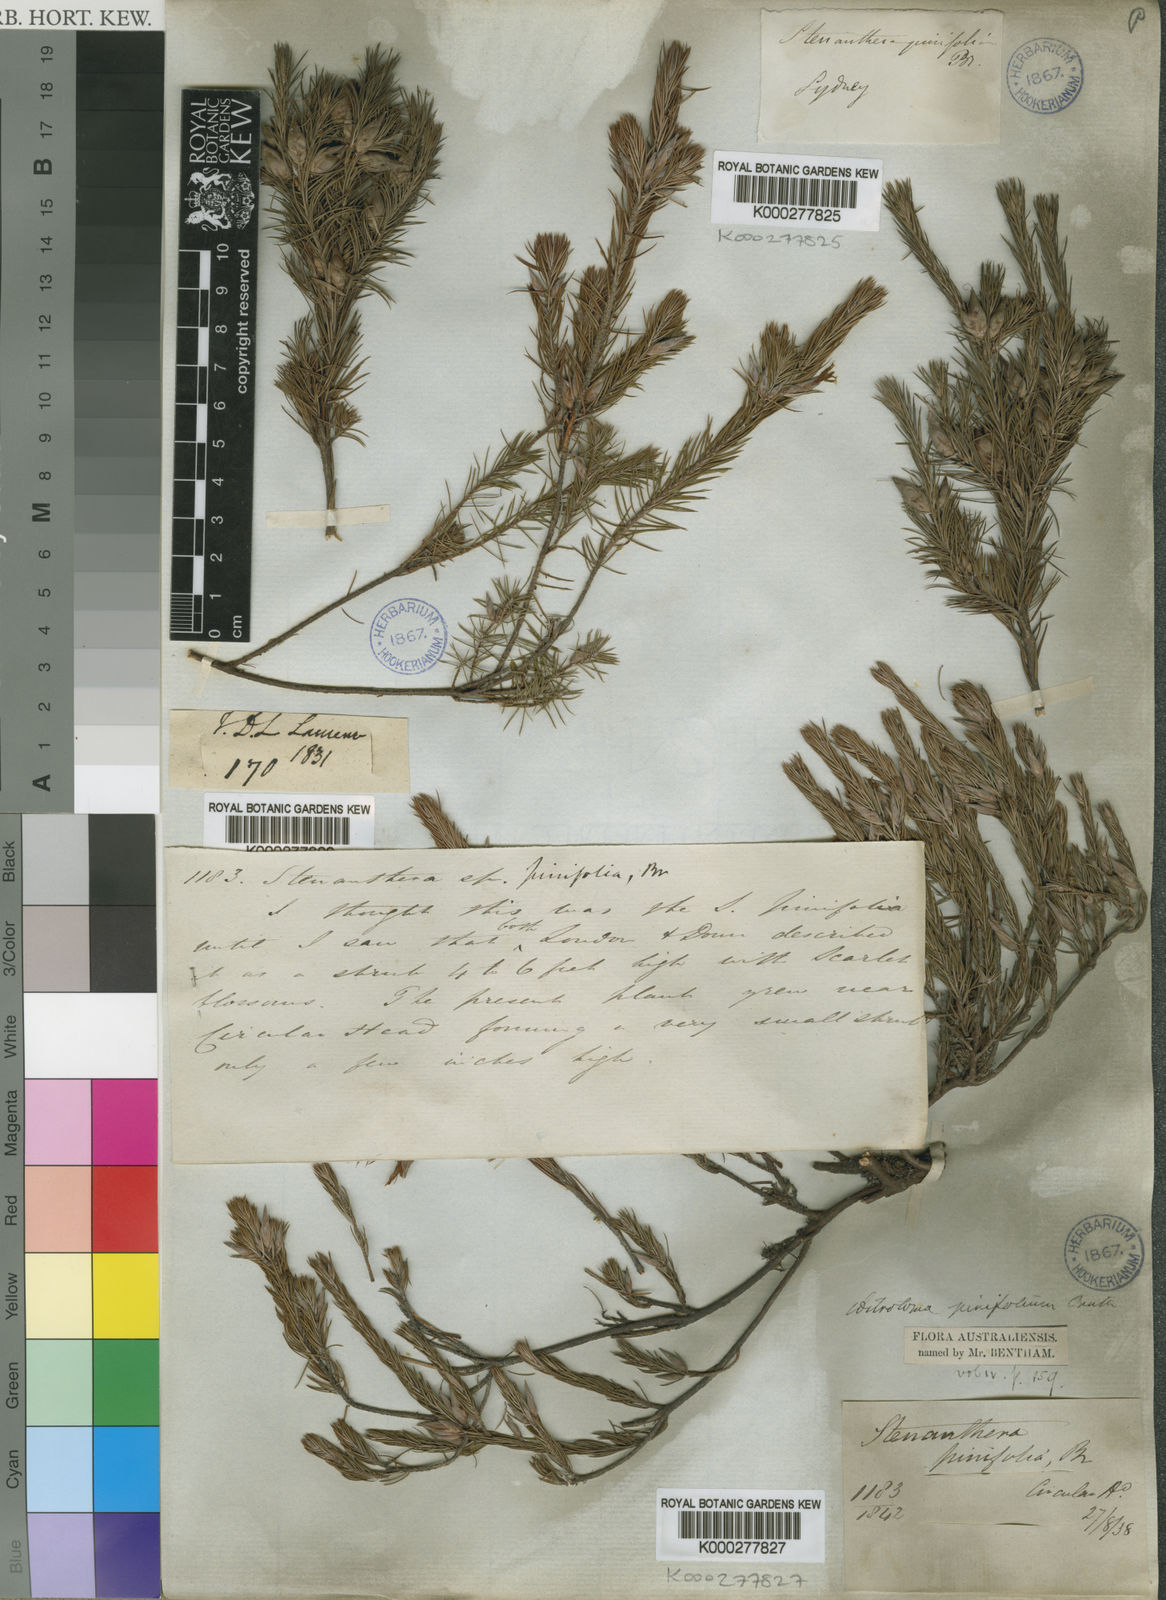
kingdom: Plantae
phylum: Tracheophyta
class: Magnoliopsida
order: Ericales
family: Ericaceae
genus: Stenanthera
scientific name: Stenanthera pinifolia
